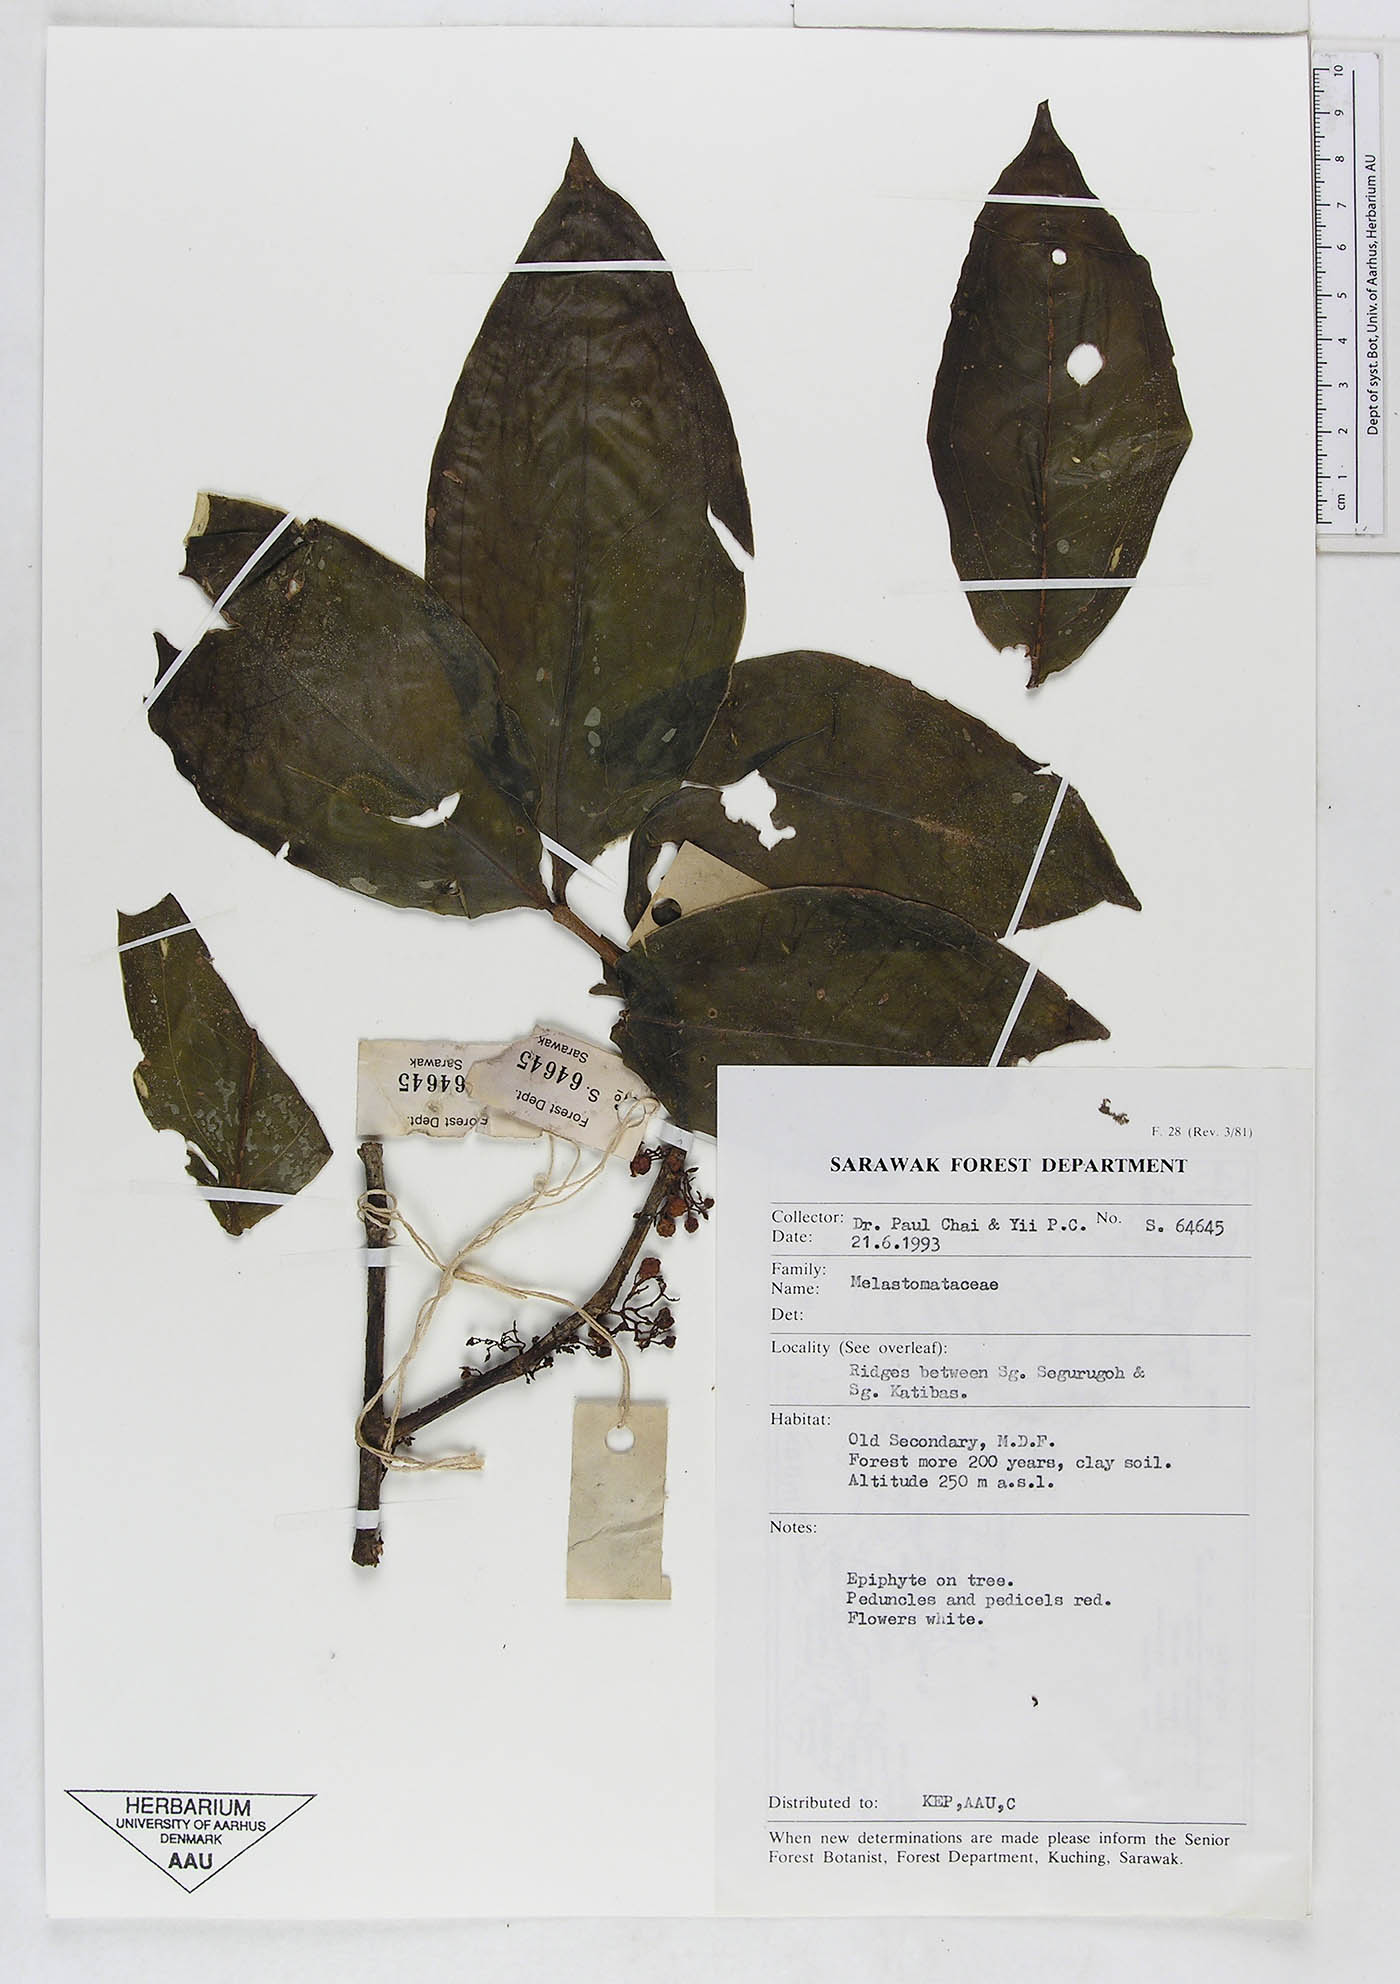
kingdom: Plantae
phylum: Tracheophyta
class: Magnoliopsida
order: Myrtales
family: Melastomataceae
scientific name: Melastomataceae
